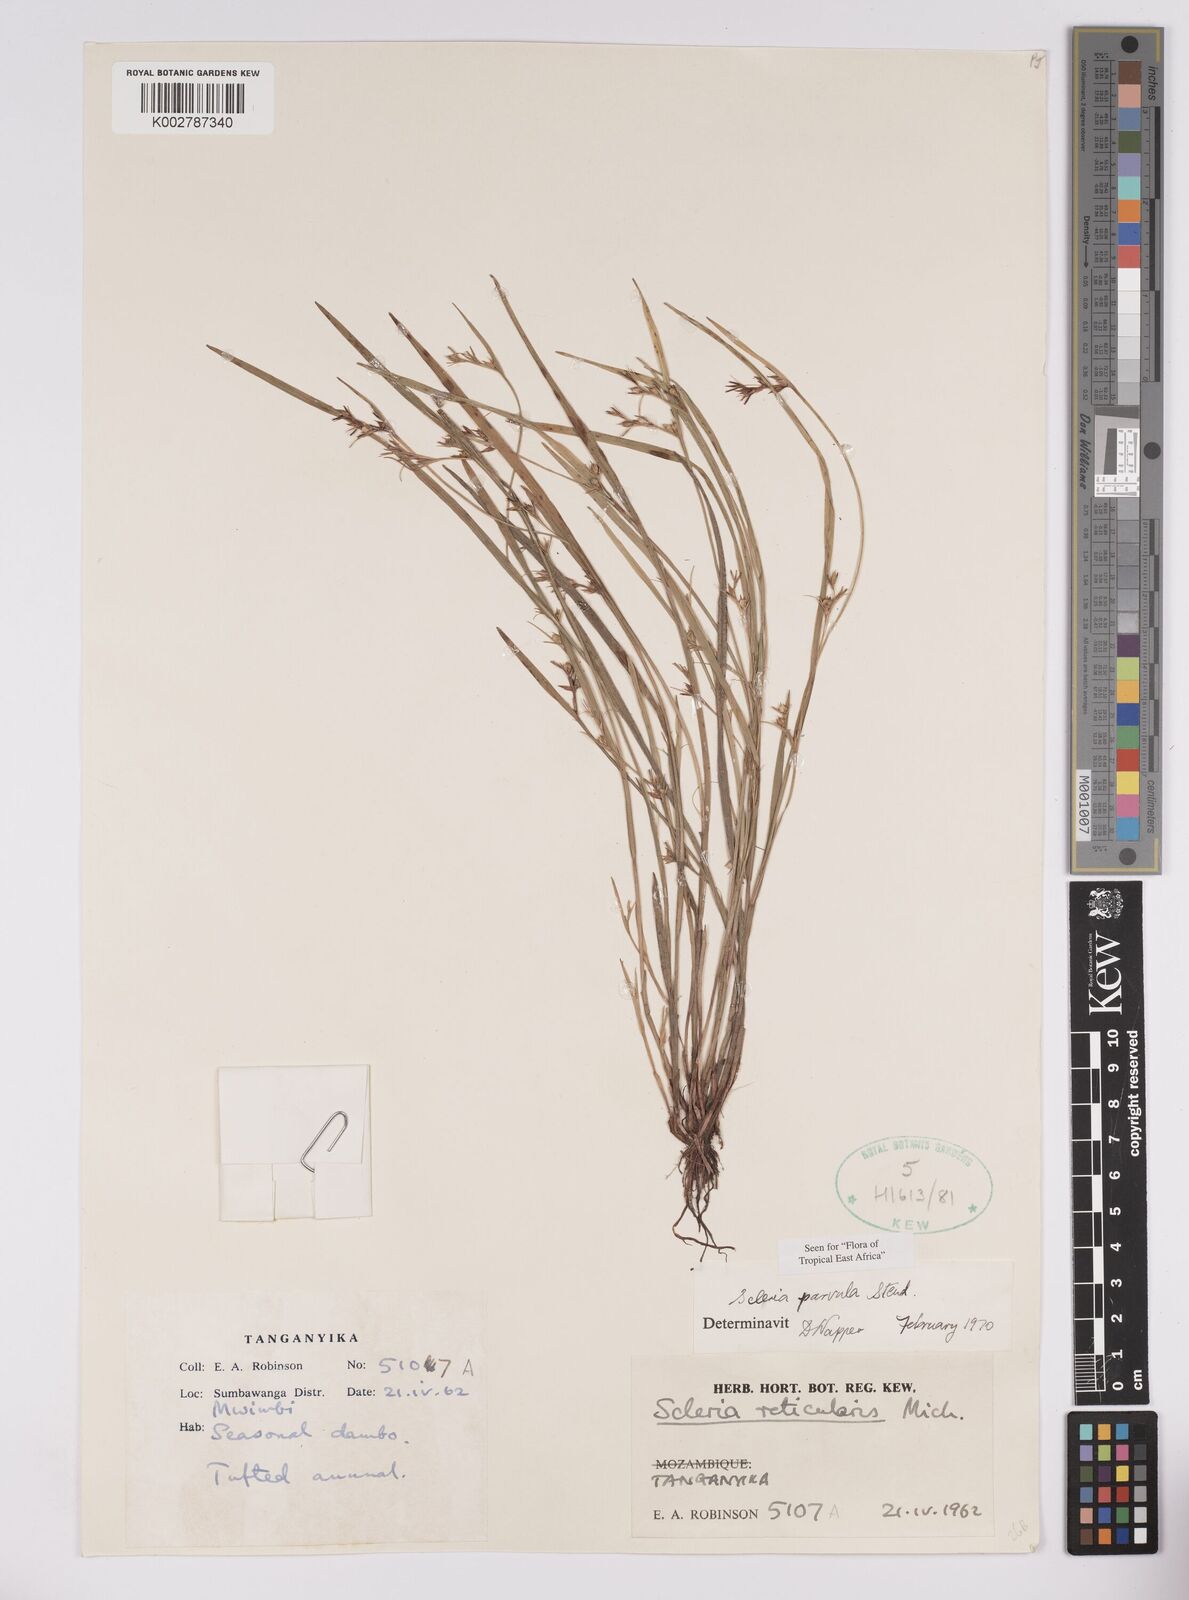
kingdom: Plantae
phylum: Tracheophyta
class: Liliopsida
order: Poales
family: Cyperaceae
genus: Scleria
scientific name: Scleria parvula
